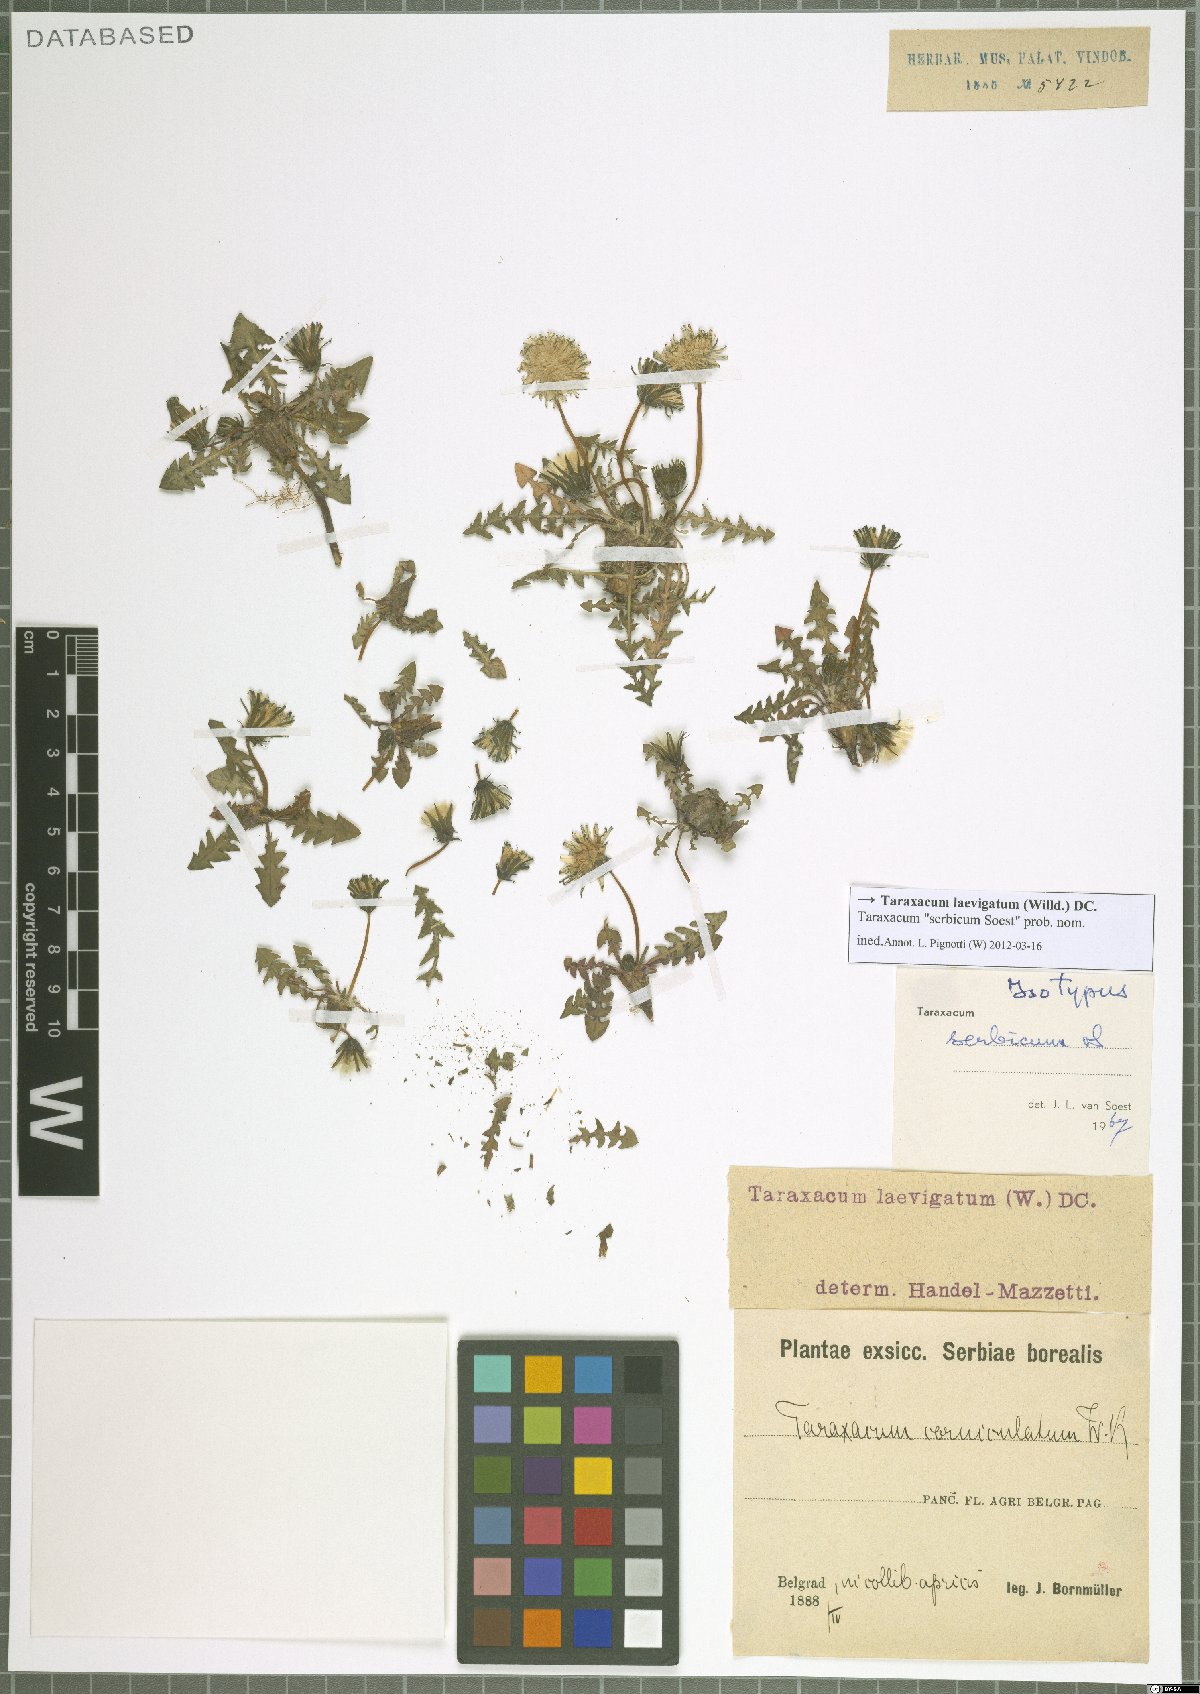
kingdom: Plantae
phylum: Tracheophyta
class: Magnoliopsida
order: Asterales
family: Asteraceae
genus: Taraxacum
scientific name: Taraxacum erythrospermum
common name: Rock dandelion
